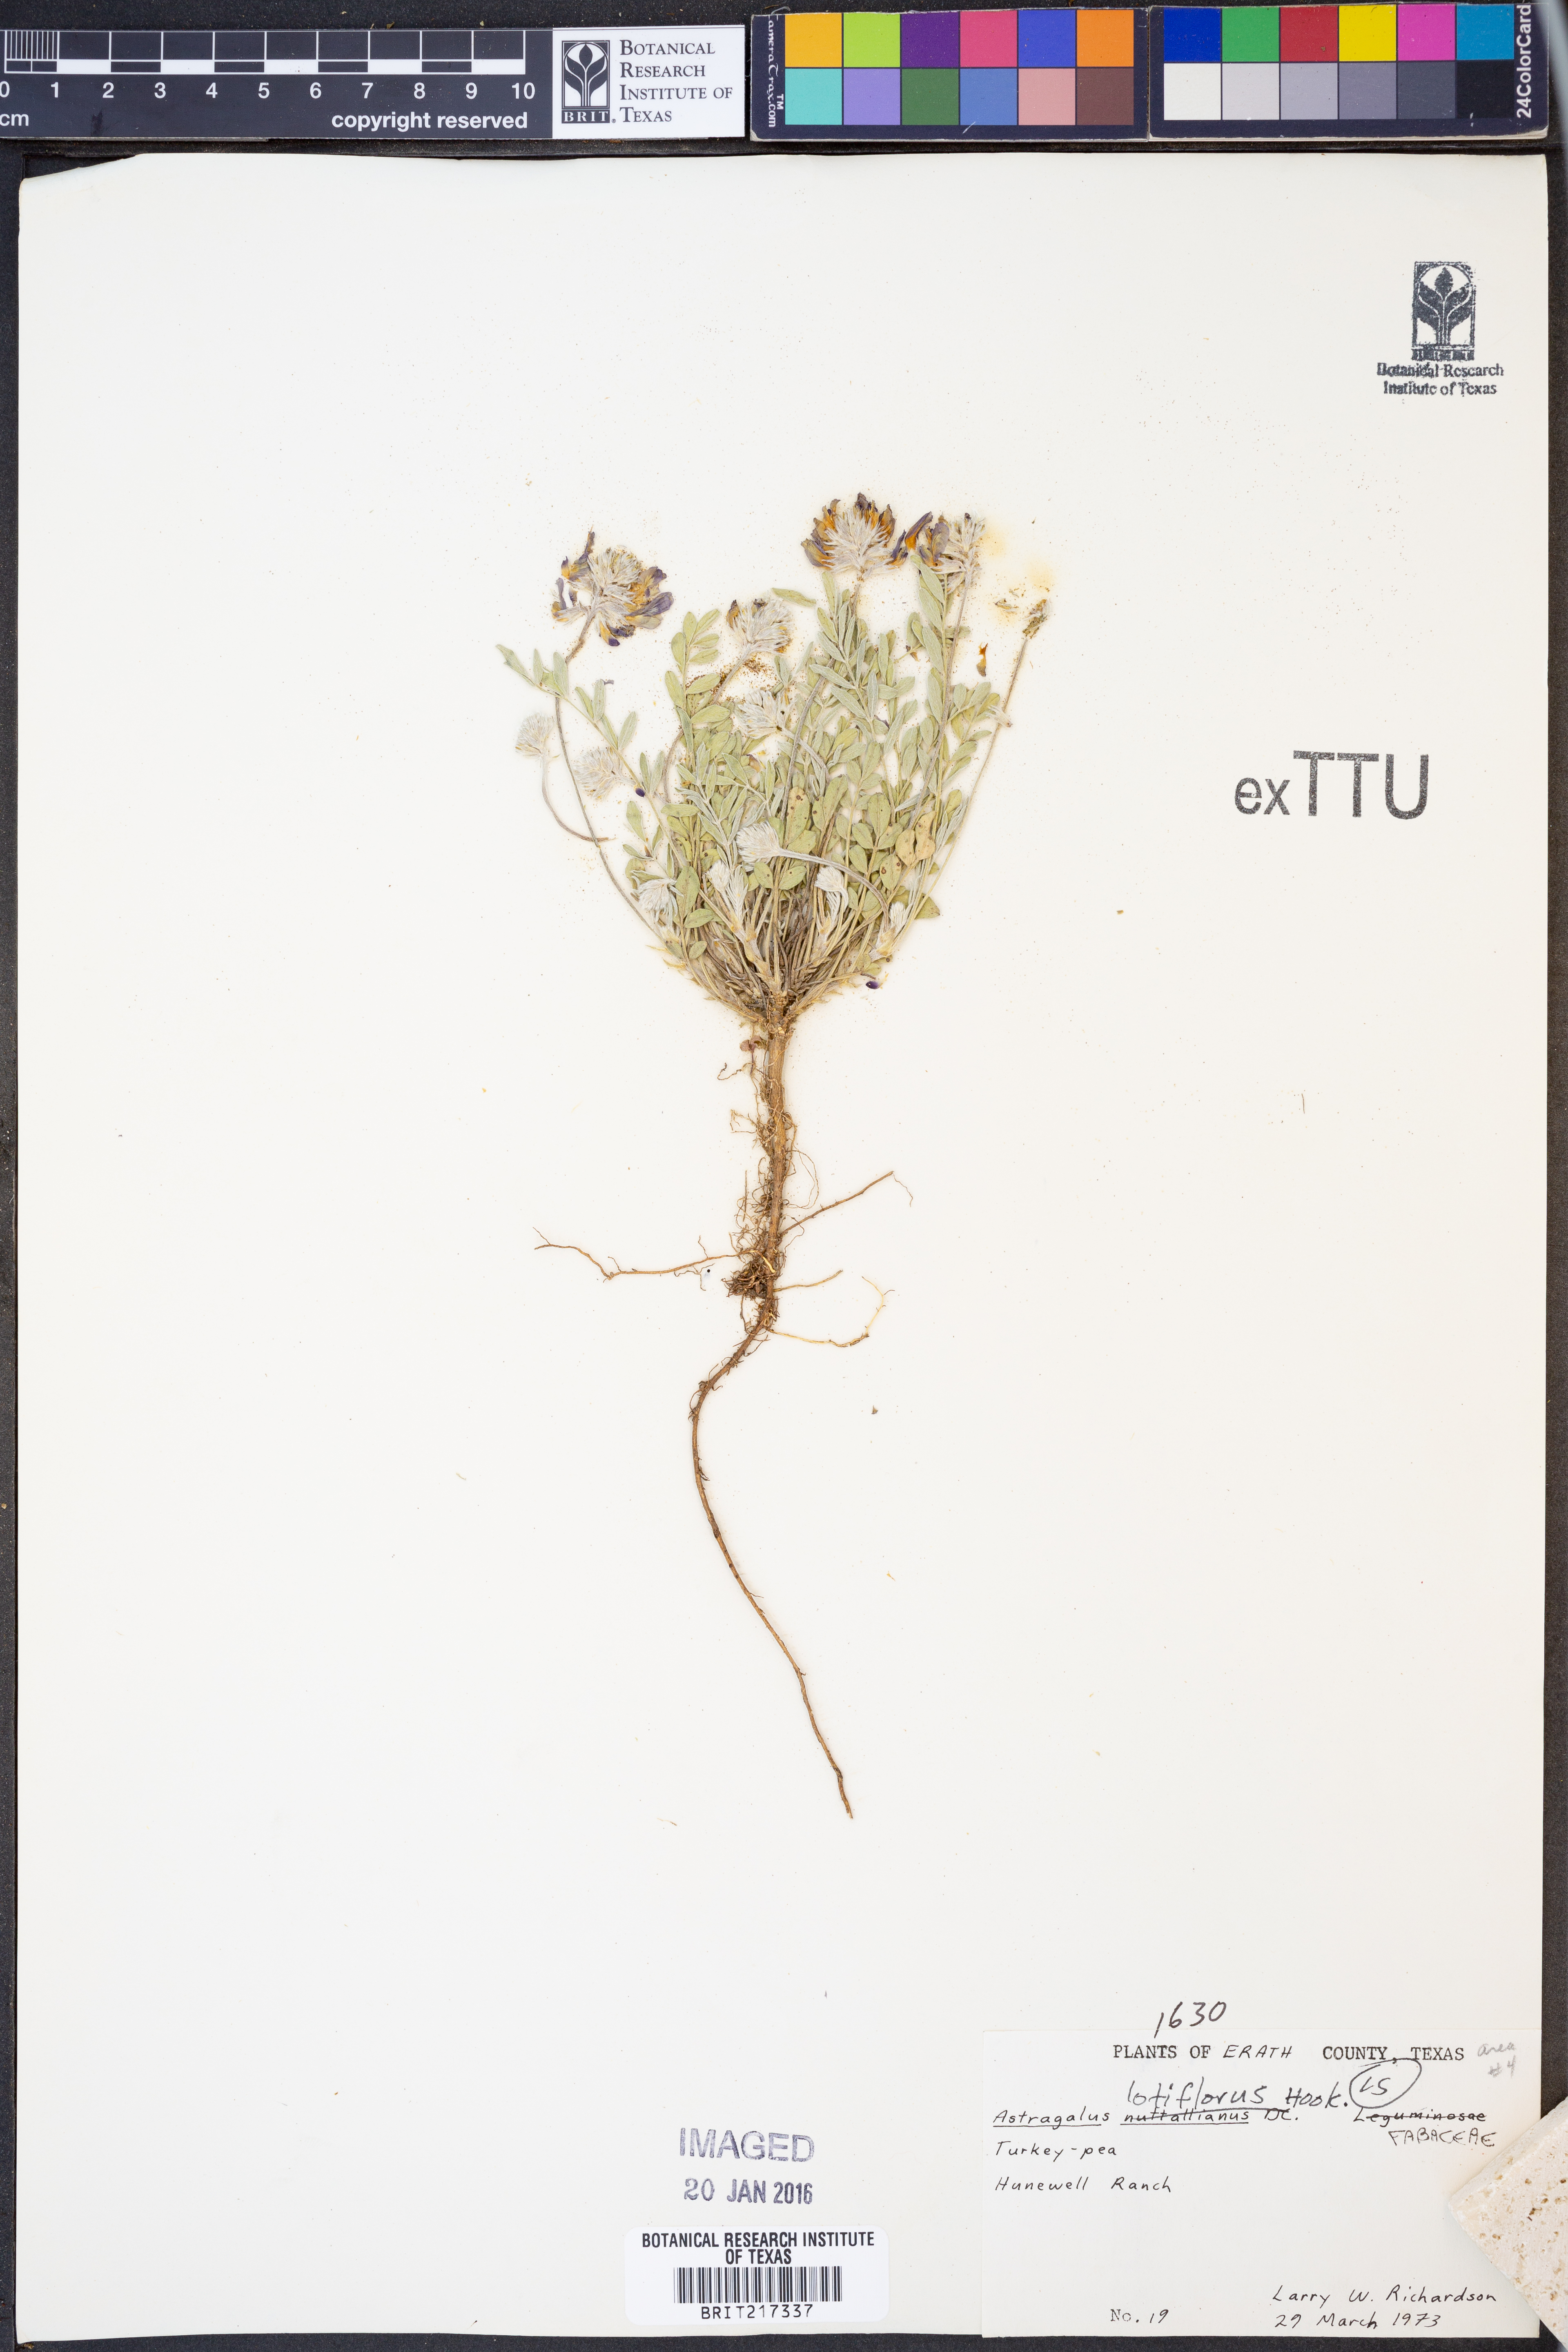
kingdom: Plantae
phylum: Tracheophyta
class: Magnoliopsida
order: Fabales
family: Fabaceae
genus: Astragalus
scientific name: Astragalus lotiflorus
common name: Lotus milk-vetch
